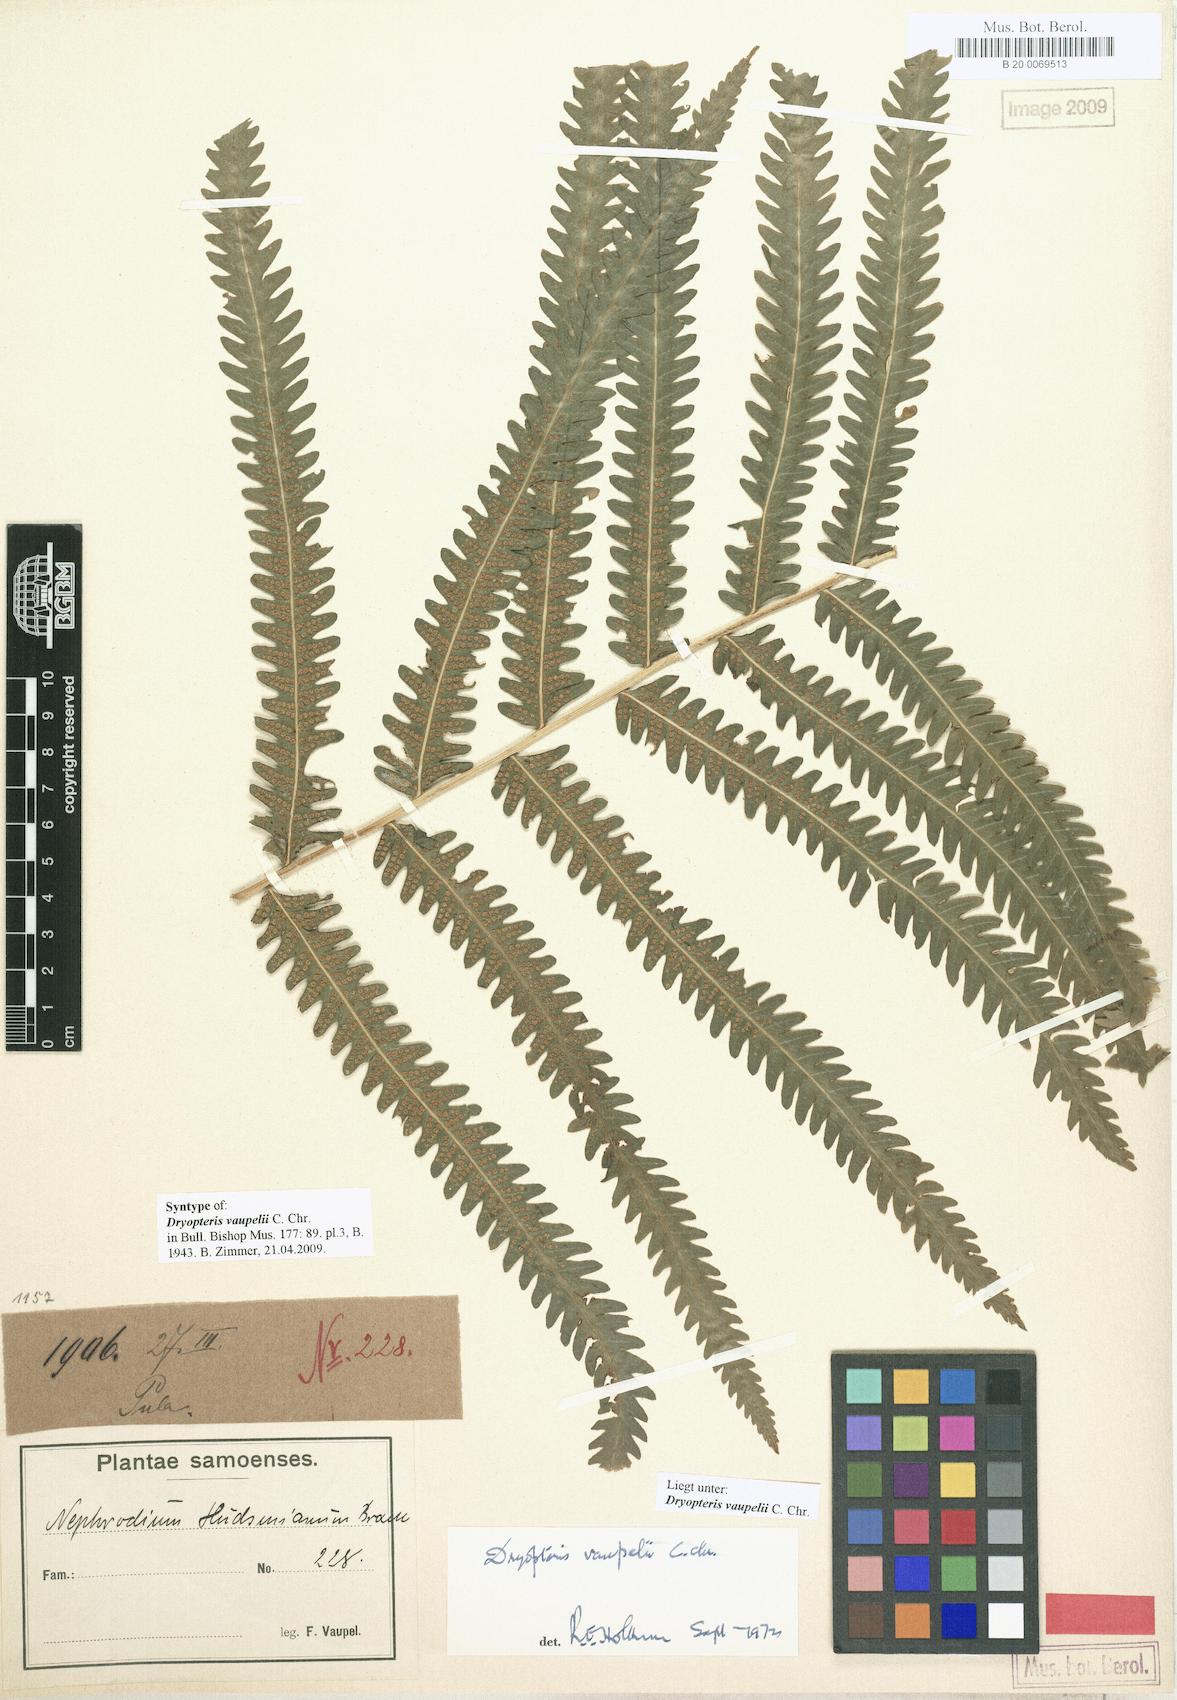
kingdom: Plantae
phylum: Tracheophyta
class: Polypodiopsida
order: Polypodiales
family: Thelypteridaceae
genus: Reholttumia
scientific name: Reholttumia vaupelii
